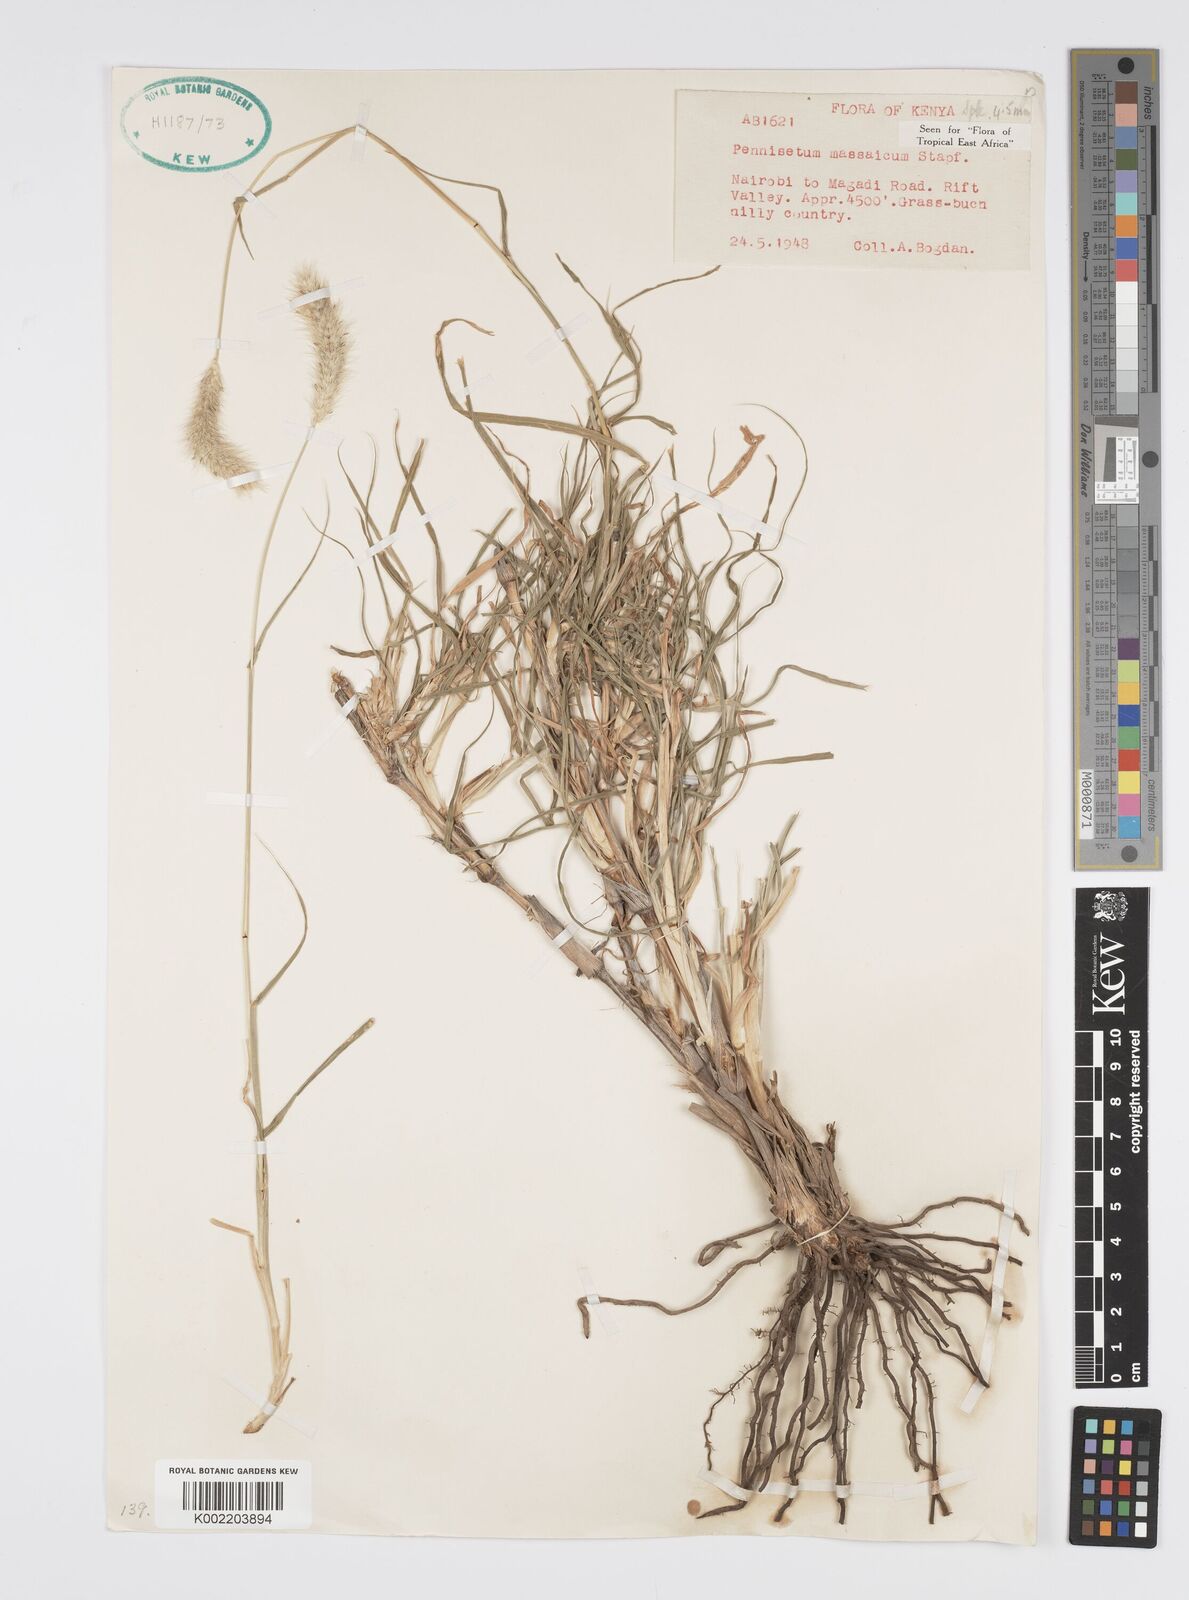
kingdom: Plantae
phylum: Tracheophyta
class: Liliopsida
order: Poales
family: Poaceae
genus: Cenchrus
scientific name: Cenchrus massaicus
